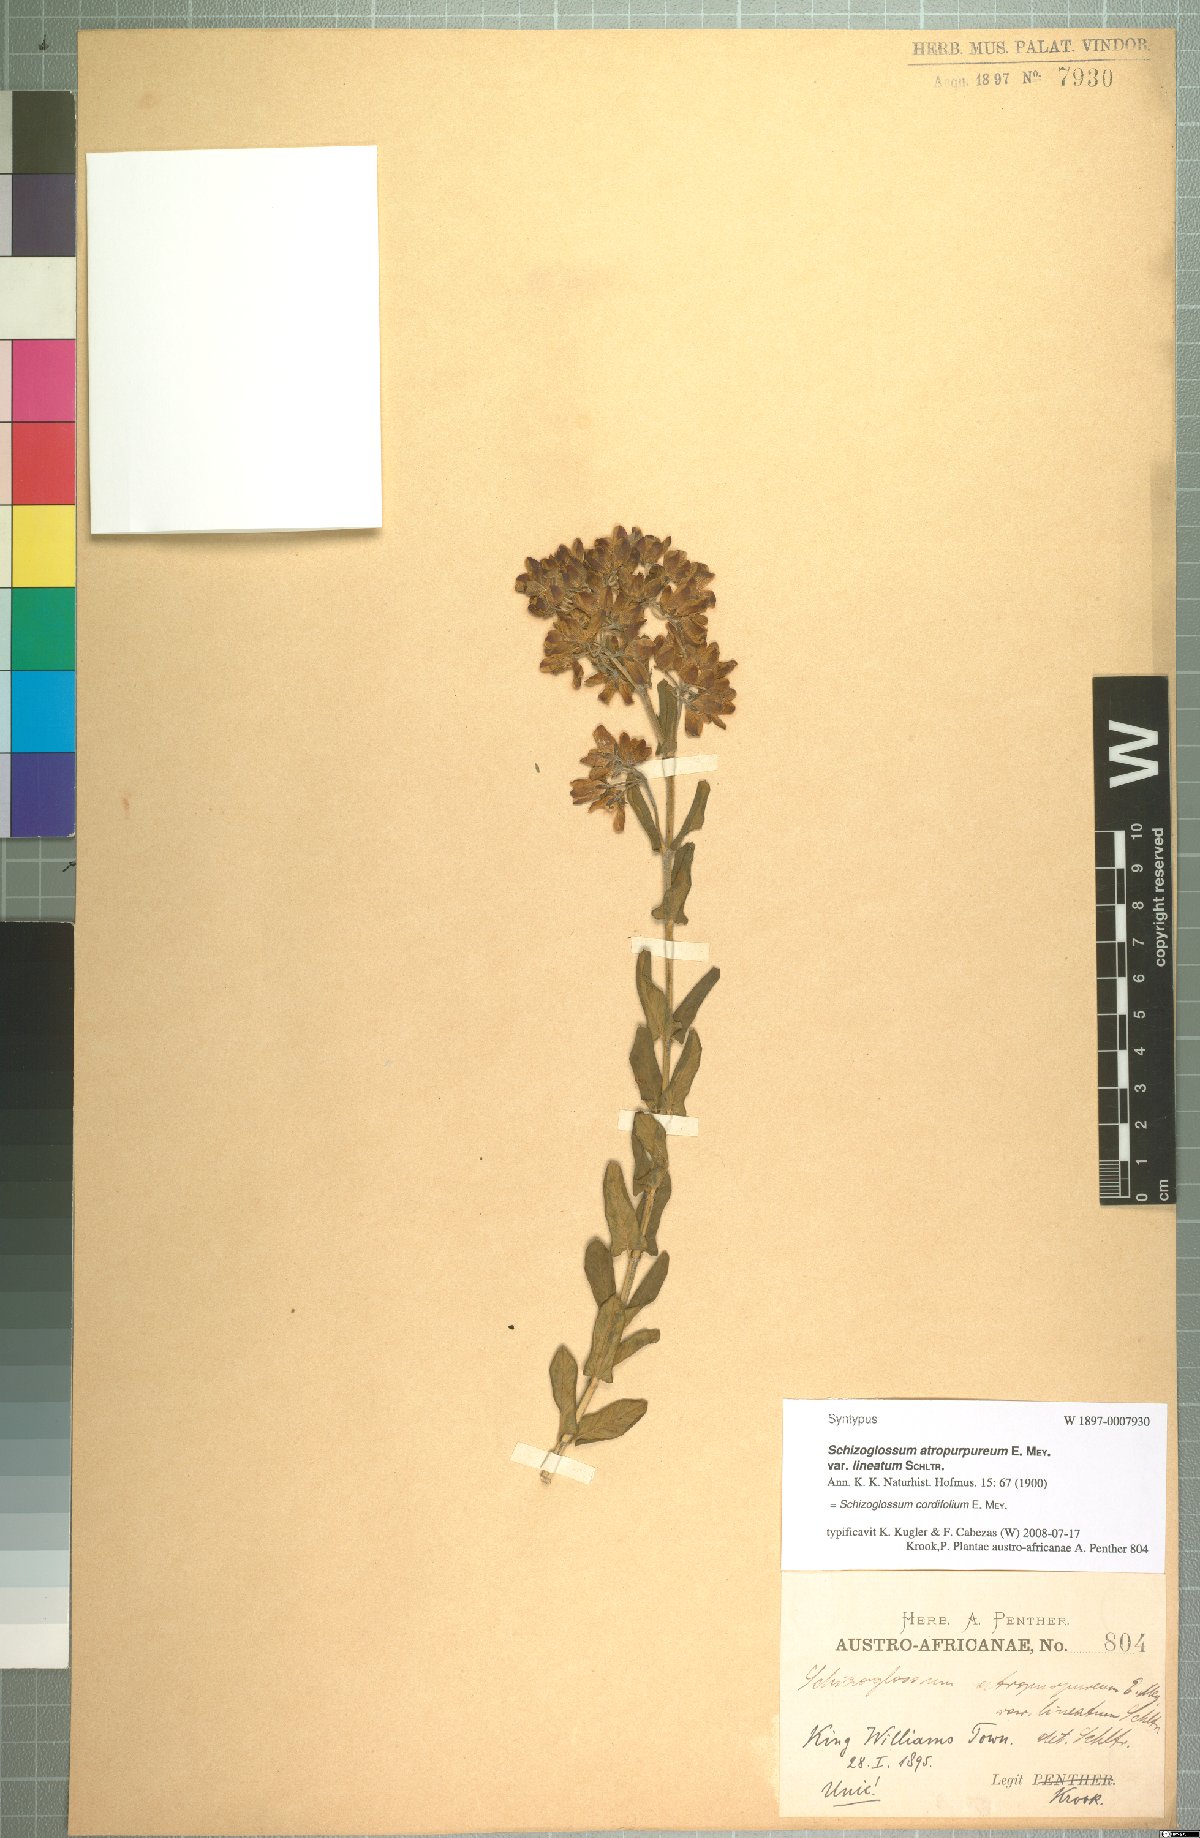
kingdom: Plantae
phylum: Tracheophyta
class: Magnoliopsida
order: Gentianales
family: Apocynaceae
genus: Schizoglossum
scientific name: Schizoglossum cordifolium
